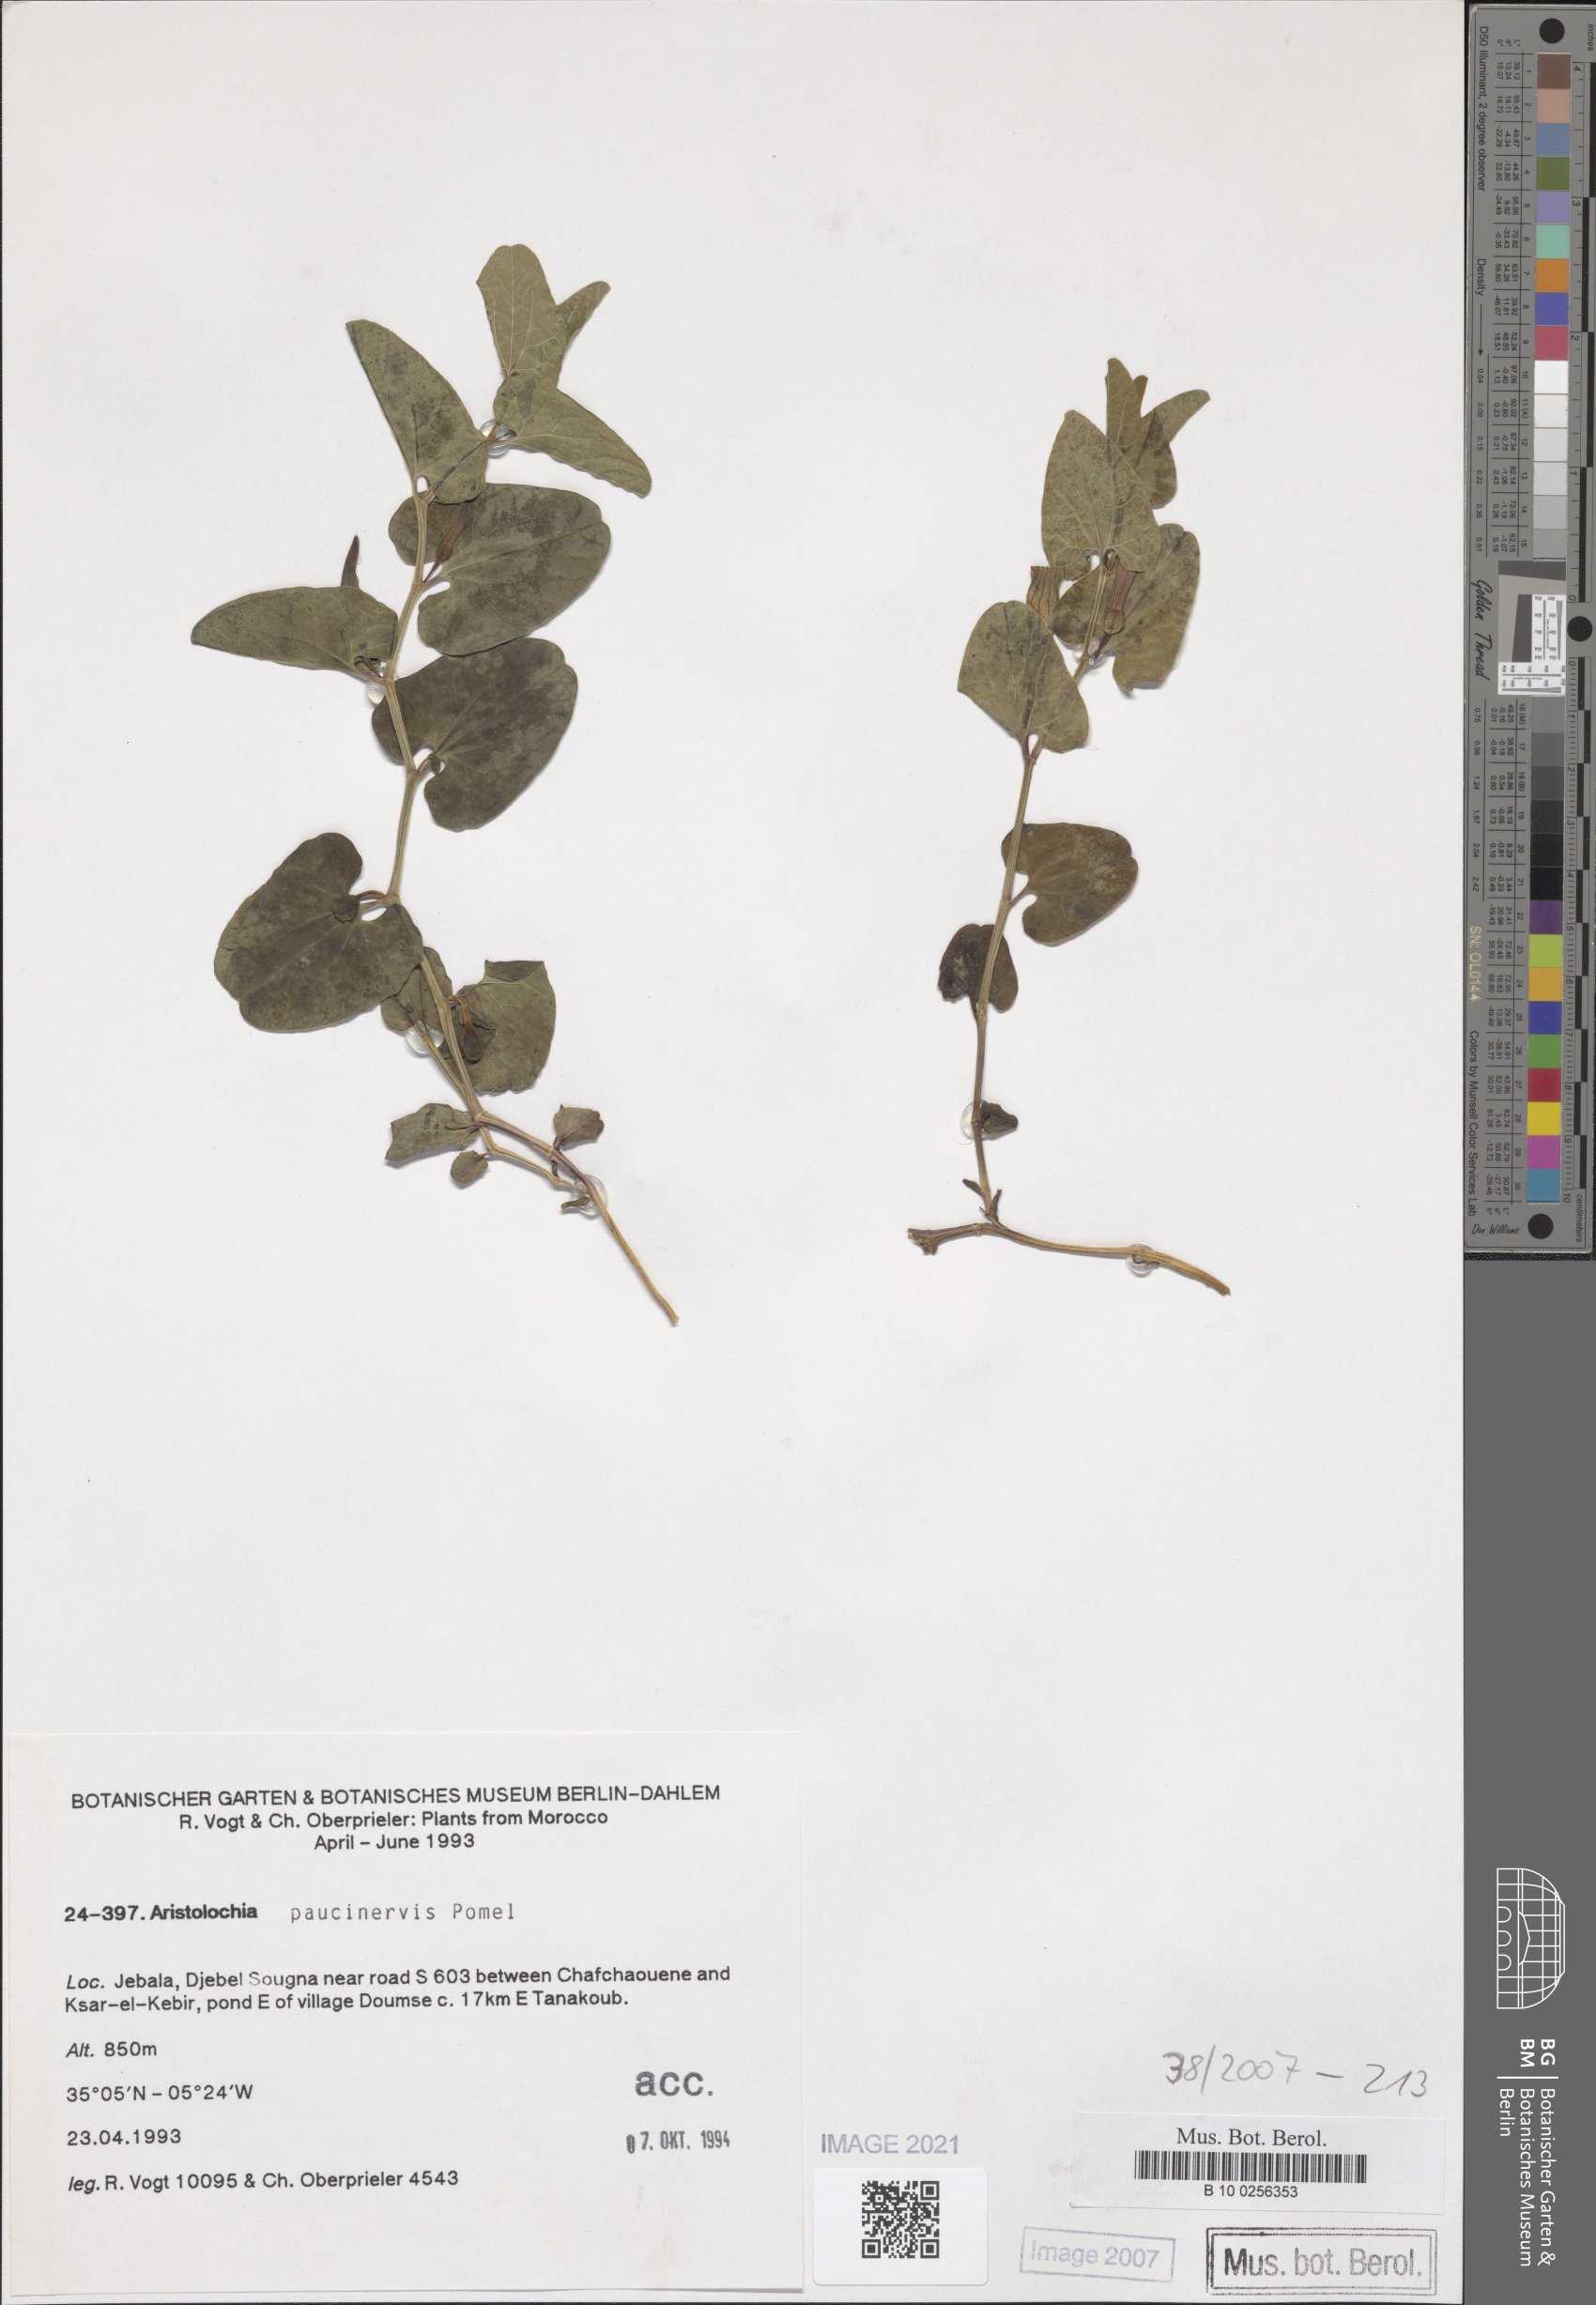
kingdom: Plantae
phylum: Tracheophyta
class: Magnoliopsida
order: Piperales
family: Aristolochiaceae
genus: Aristolochia
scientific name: Aristolochia paucinervis
